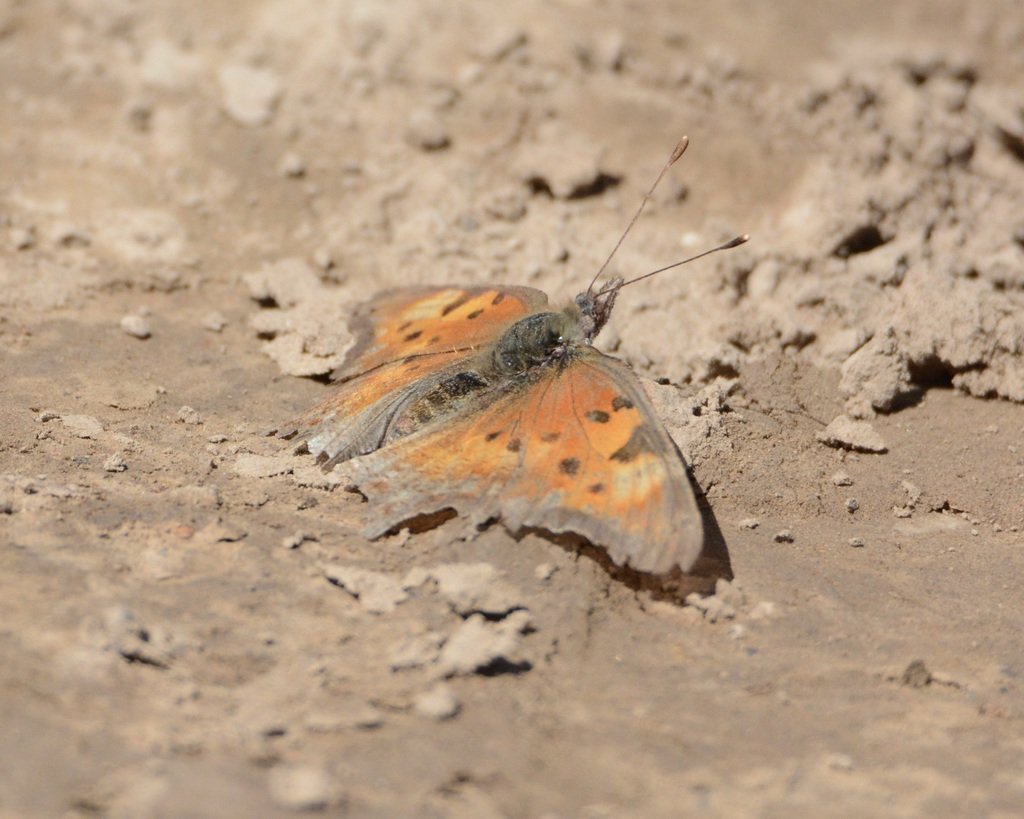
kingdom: Animalia
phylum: Arthropoda
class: Insecta
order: Lepidoptera
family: Nymphalidae
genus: Polygonia
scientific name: Polygonia gracilis
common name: Hoary Comma
